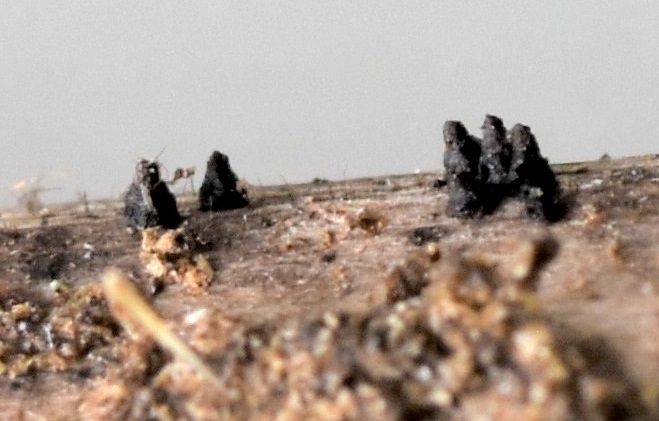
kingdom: Fungi
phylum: Ascomycota
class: Dothideomycetes
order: Pleosporales
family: Leptosphaeriaceae
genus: Leptosphaeria
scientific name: Leptosphaeria acuta
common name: spids kulkegle
